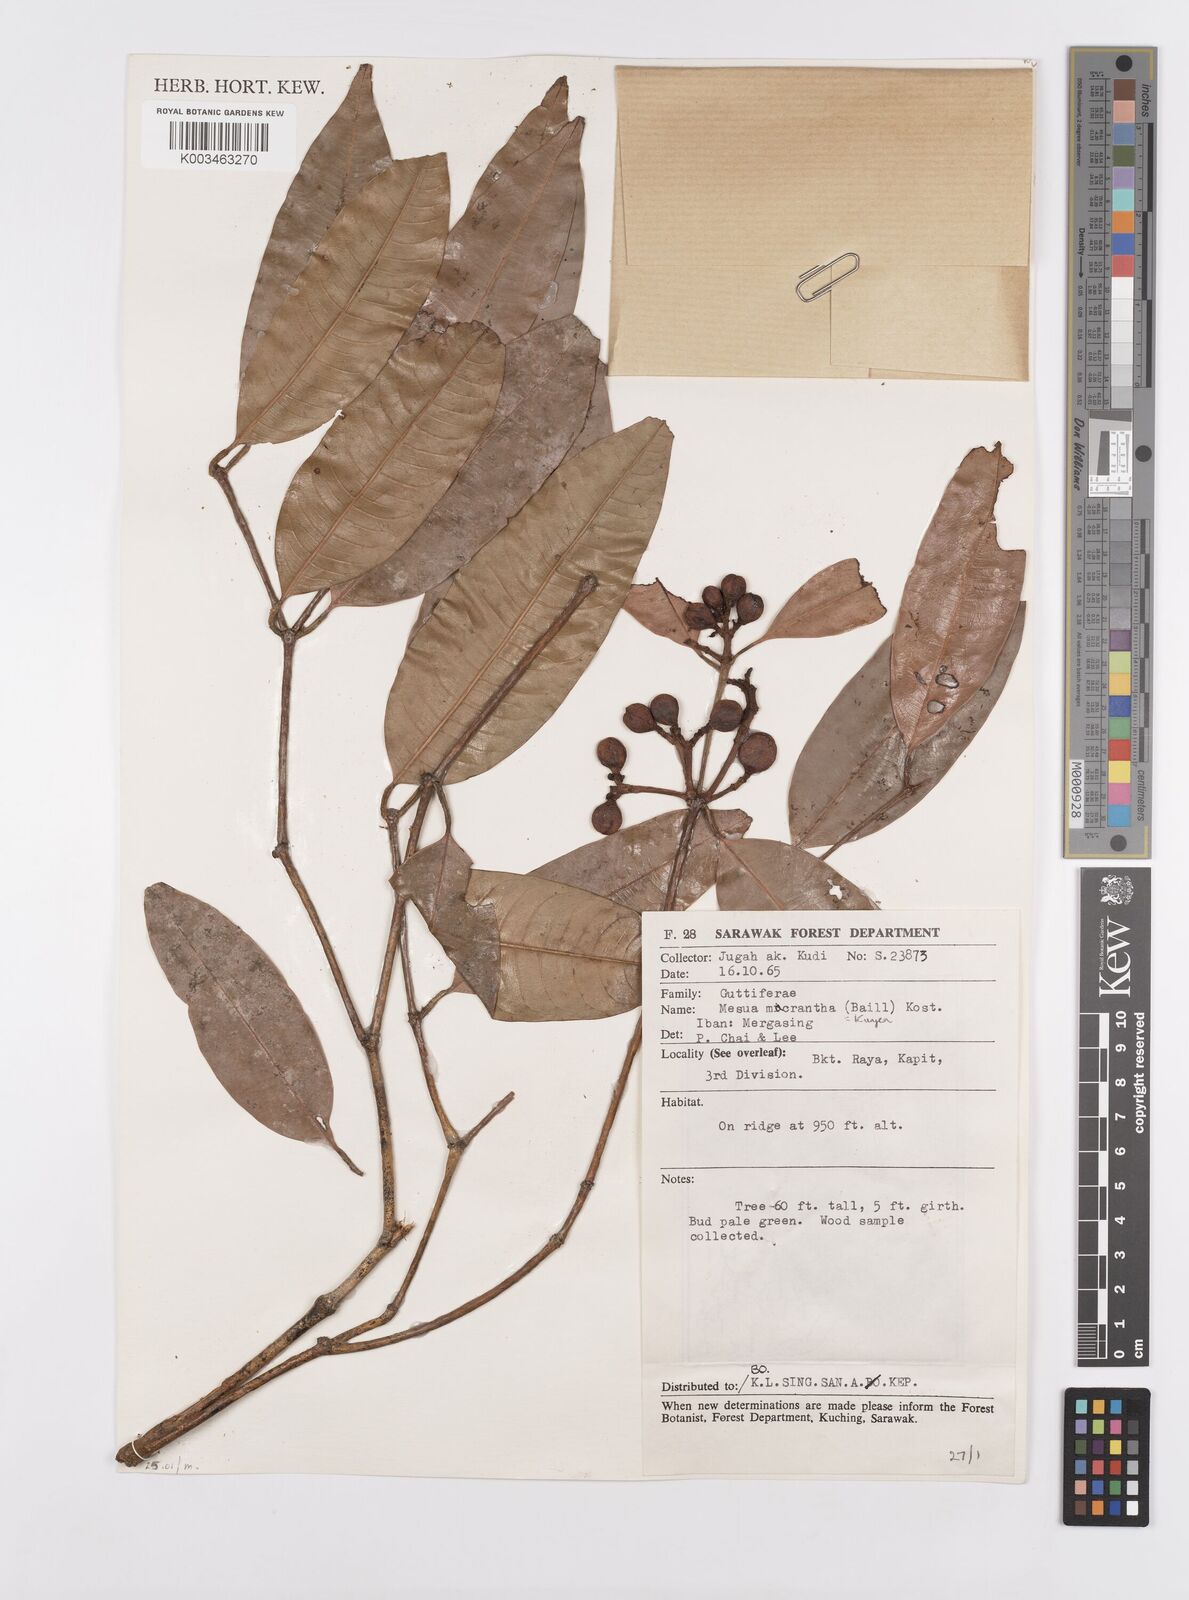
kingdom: Plantae
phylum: Tracheophyta
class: Magnoliopsida
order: Malpighiales
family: Calophyllaceae
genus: Kayea
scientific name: Kayea macrantha
